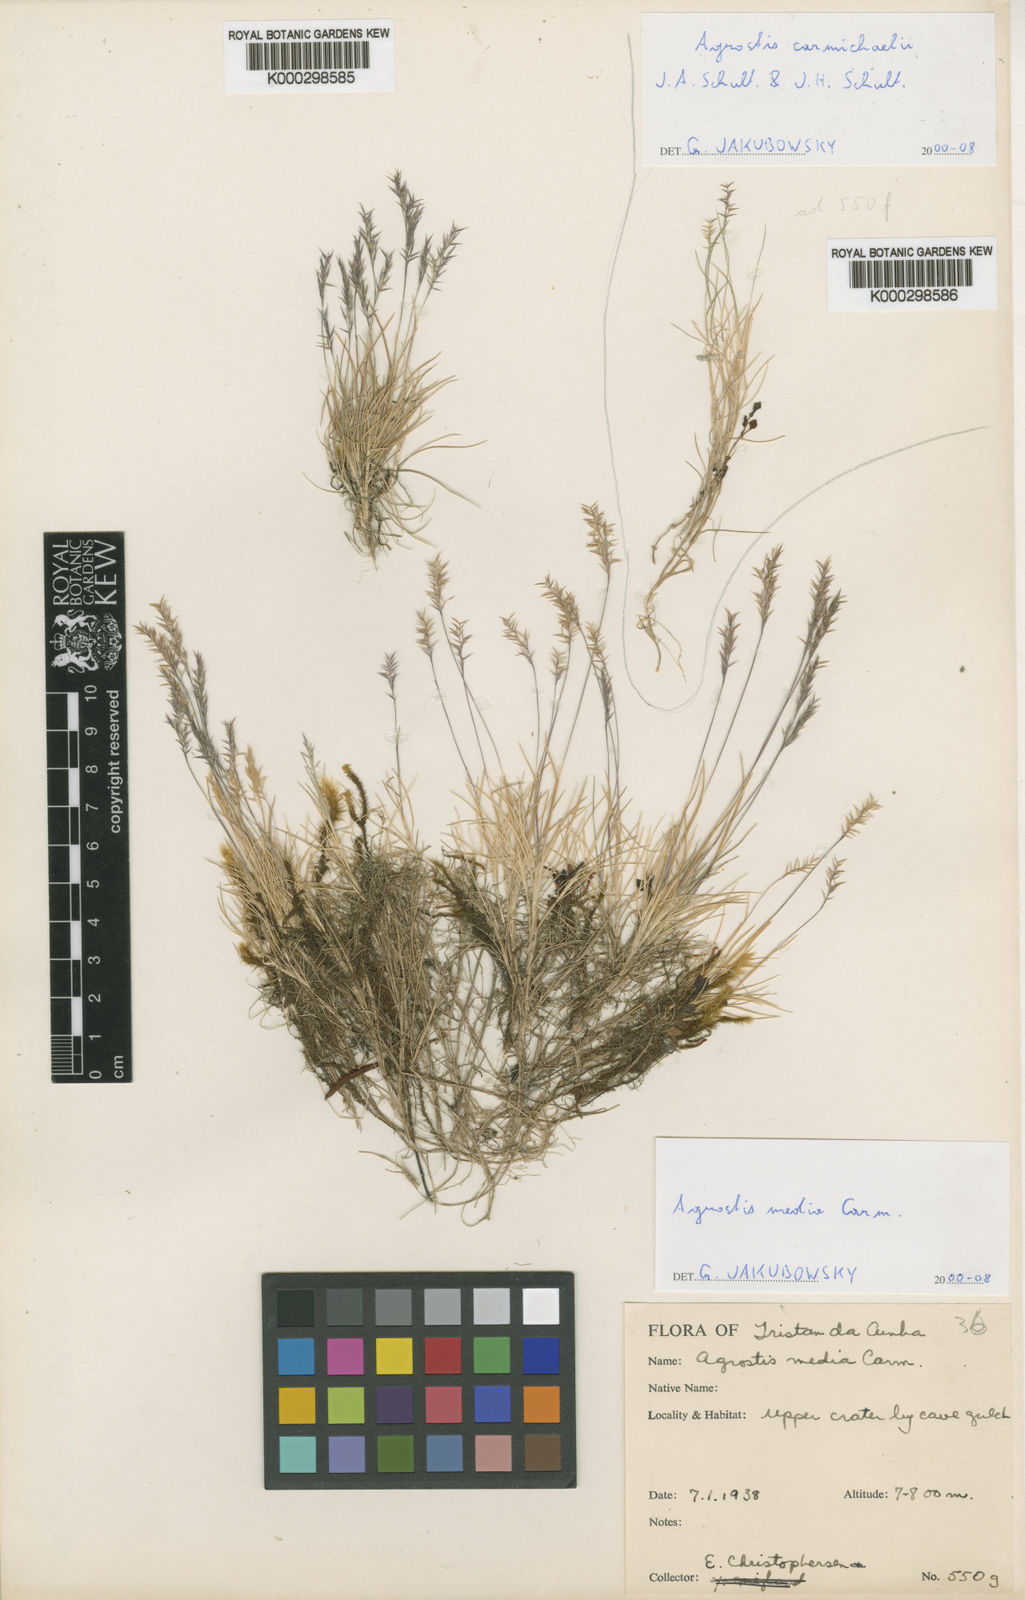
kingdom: Plantae
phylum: Tracheophyta
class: Liliopsida
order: Poales
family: Poaceae
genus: Agrostis
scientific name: Agrostis media
